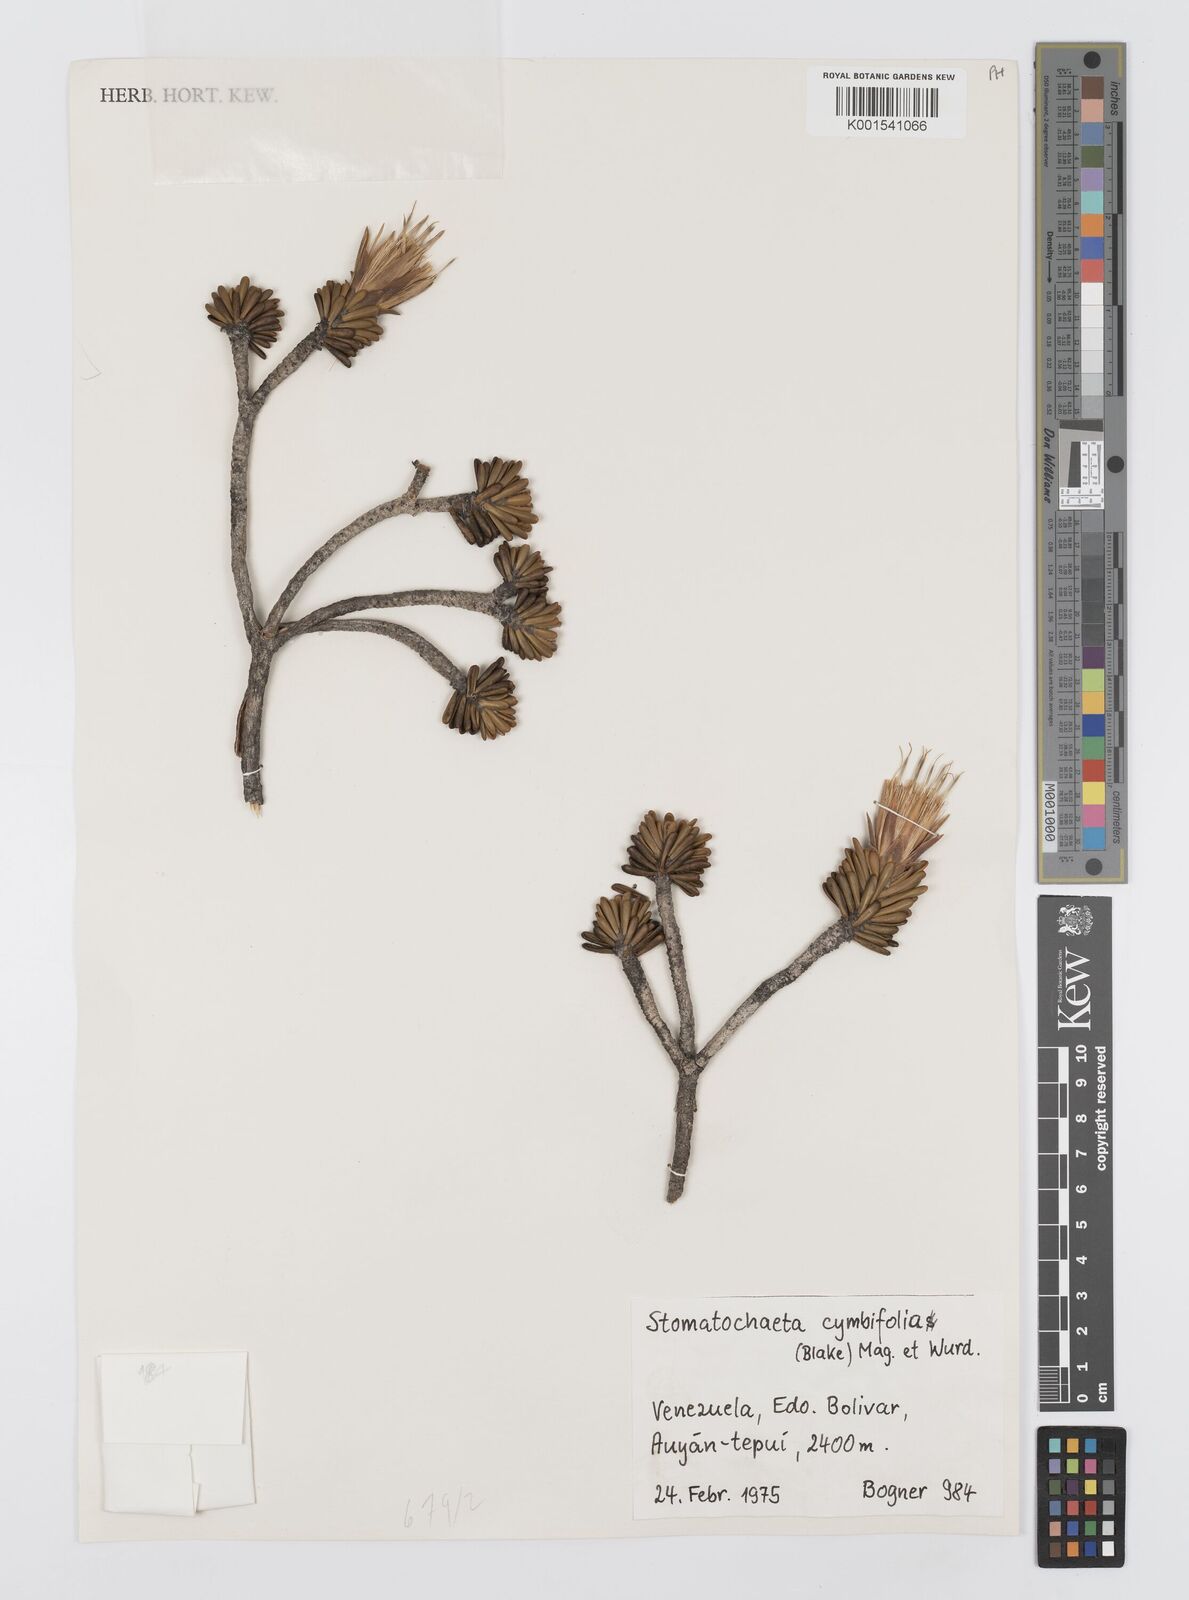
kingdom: Plantae
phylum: Tracheophyta
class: Magnoliopsida
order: Asterales
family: Asteraceae
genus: Stomatochaeta
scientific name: Stomatochaeta cymbifolia
